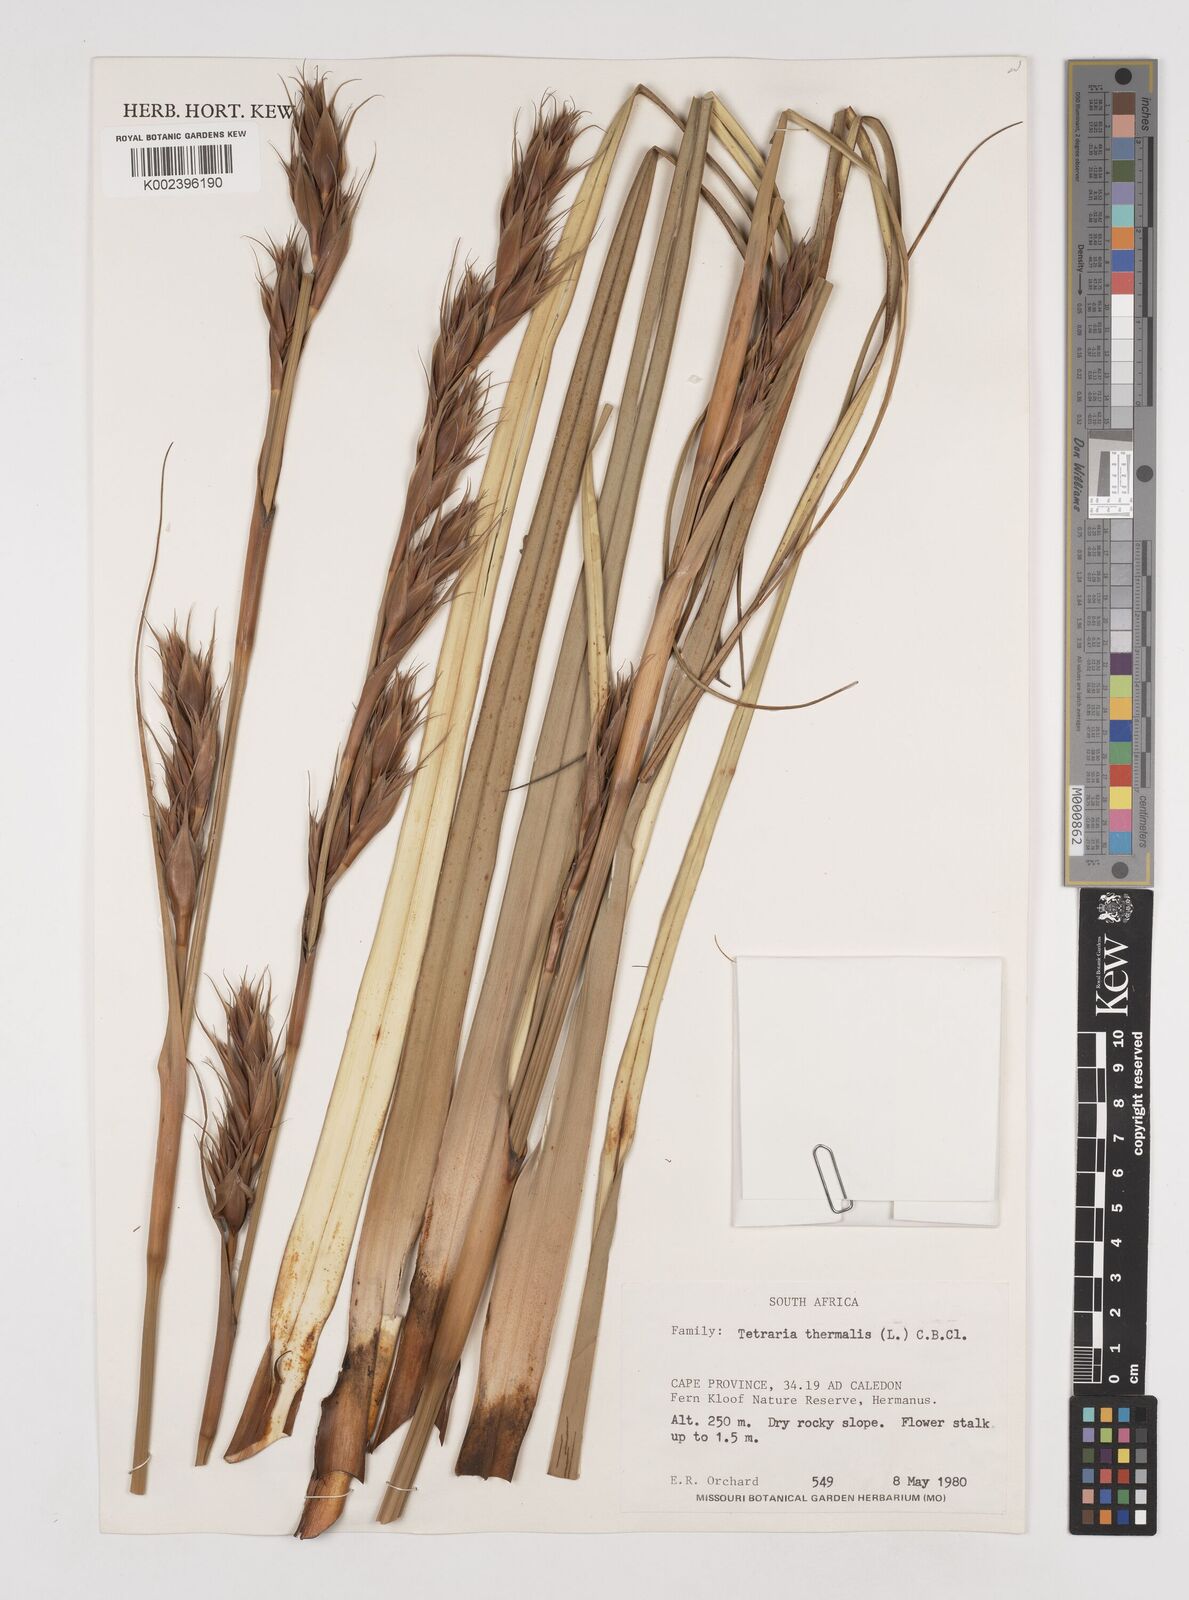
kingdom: Plantae
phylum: Tracheophyta
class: Liliopsida
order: Poales
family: Cyperaceae
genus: Tetraria
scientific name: Tetraria thermalis
